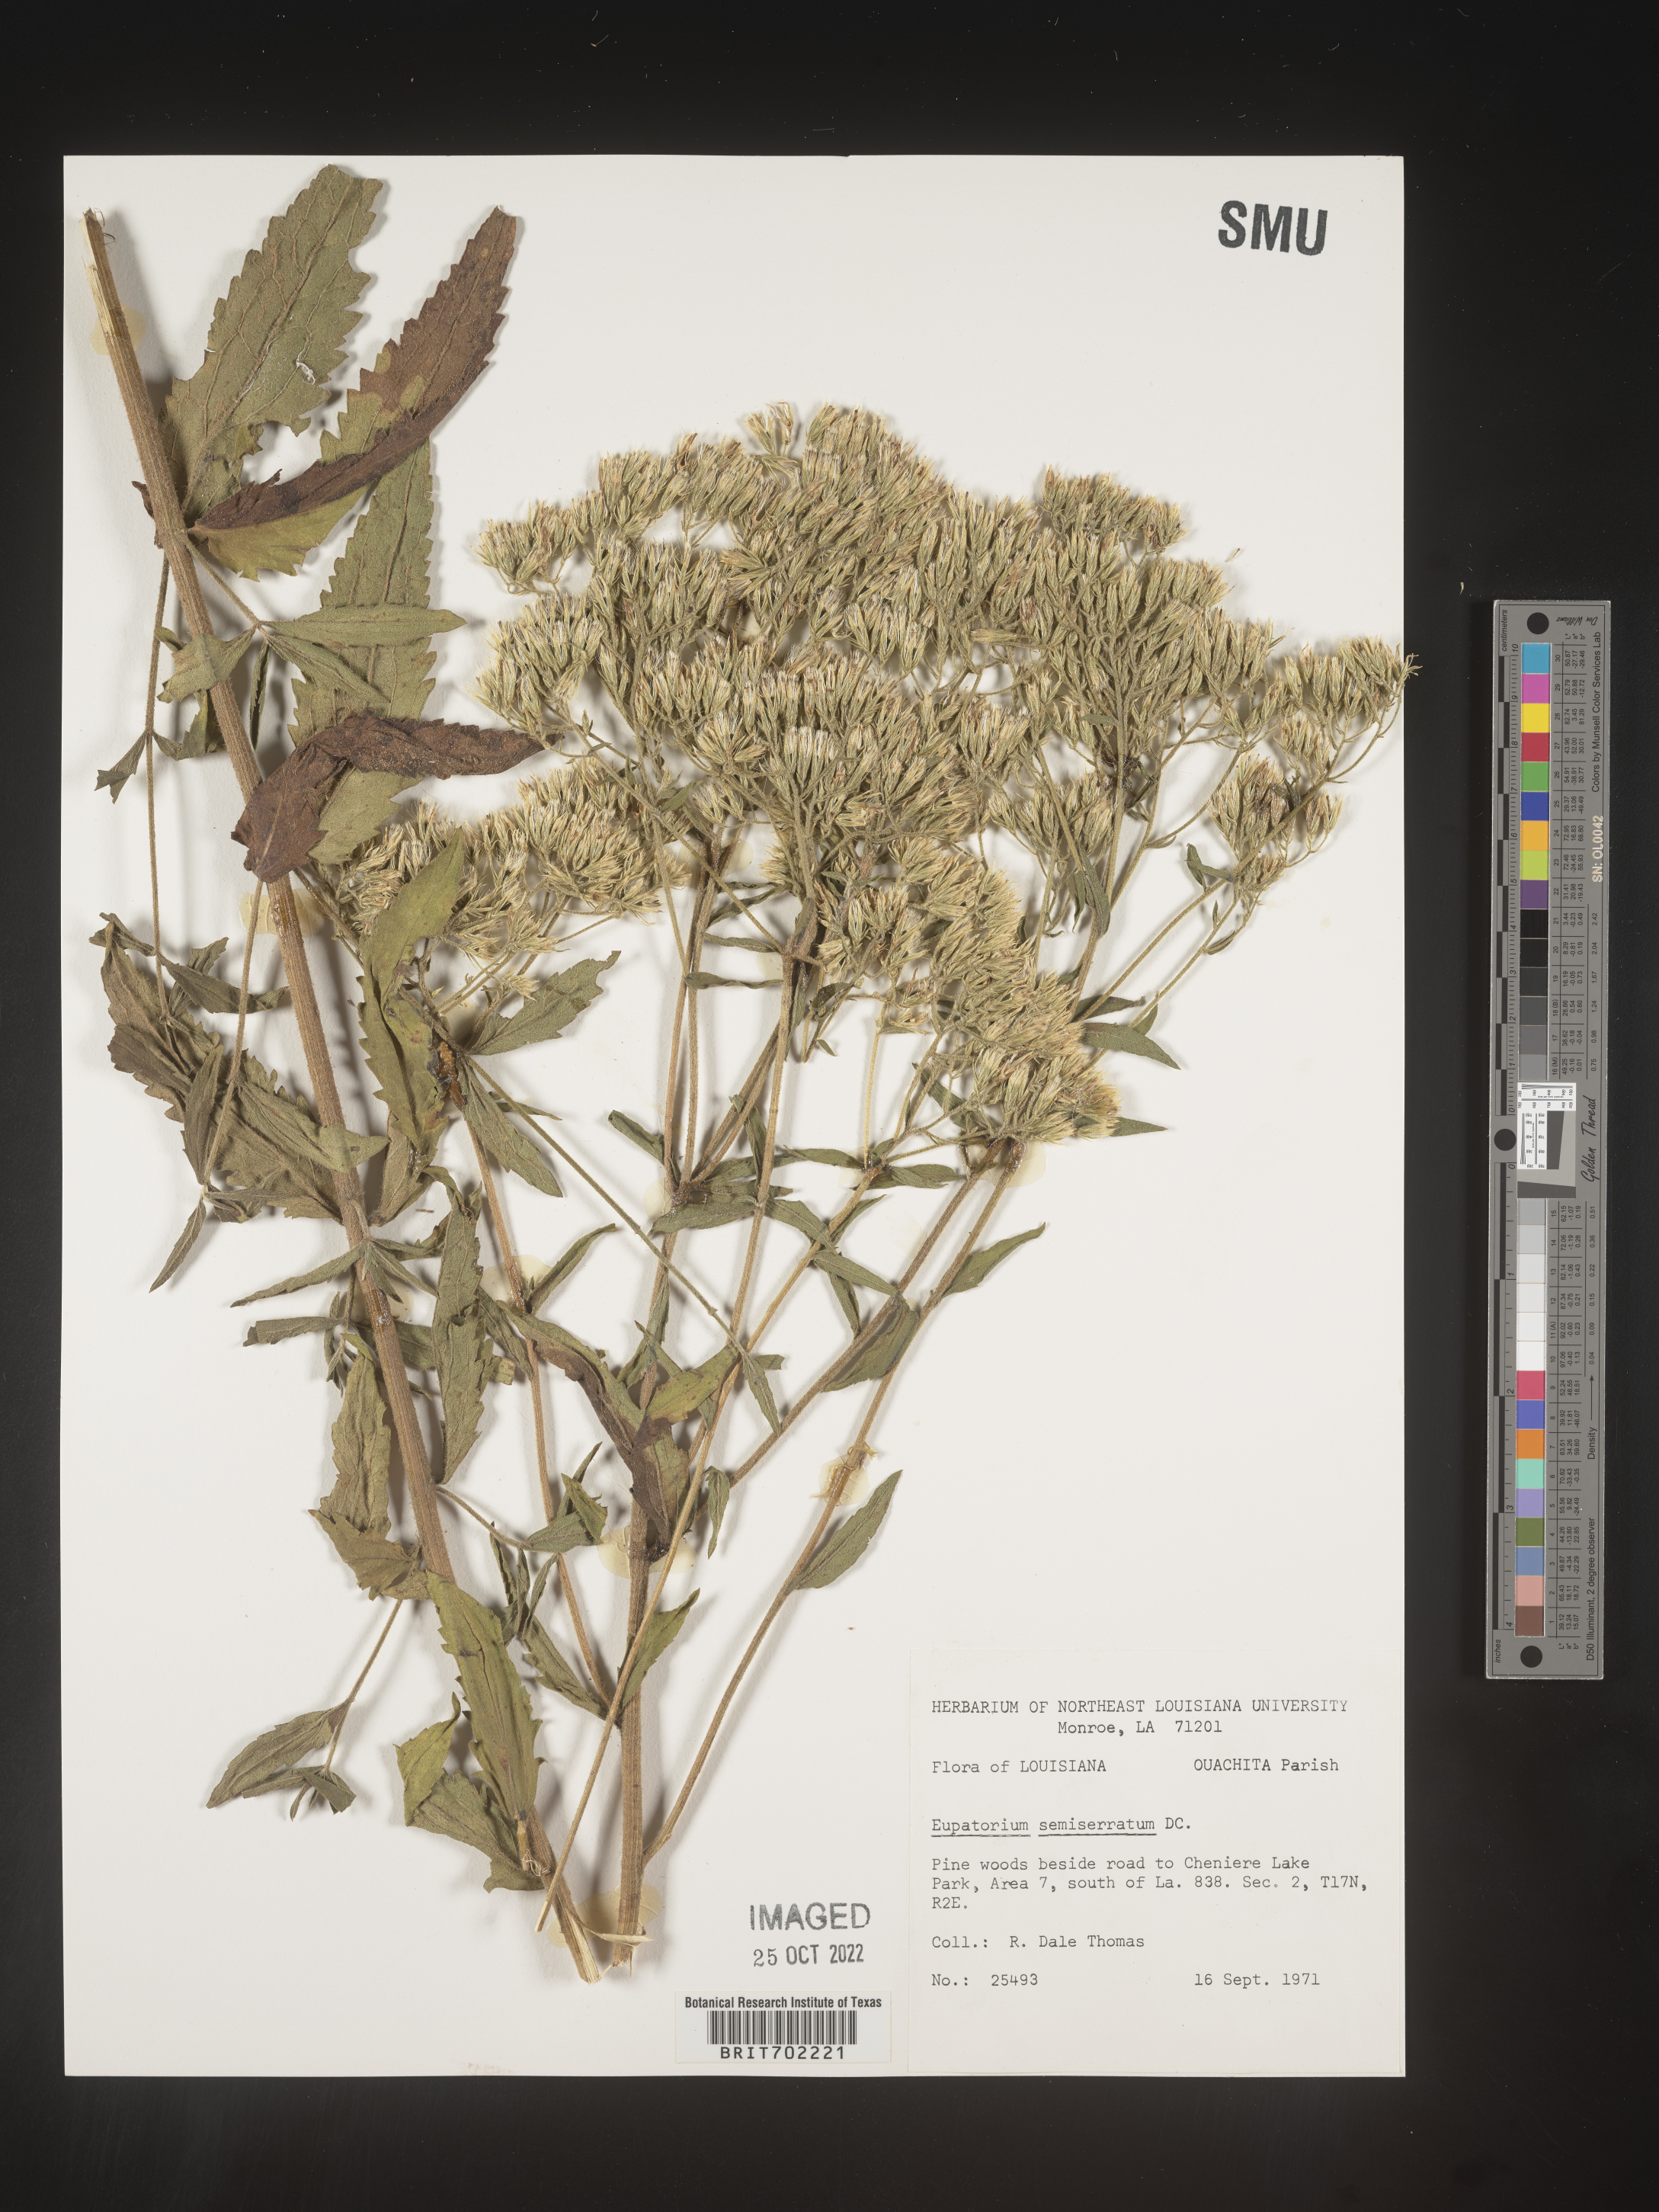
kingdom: Plantae
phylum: Tracheophyta
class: Magnoliopsida
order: Asterales
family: Asteraceae
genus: Eupatorium
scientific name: Eupatorium semiserratum
